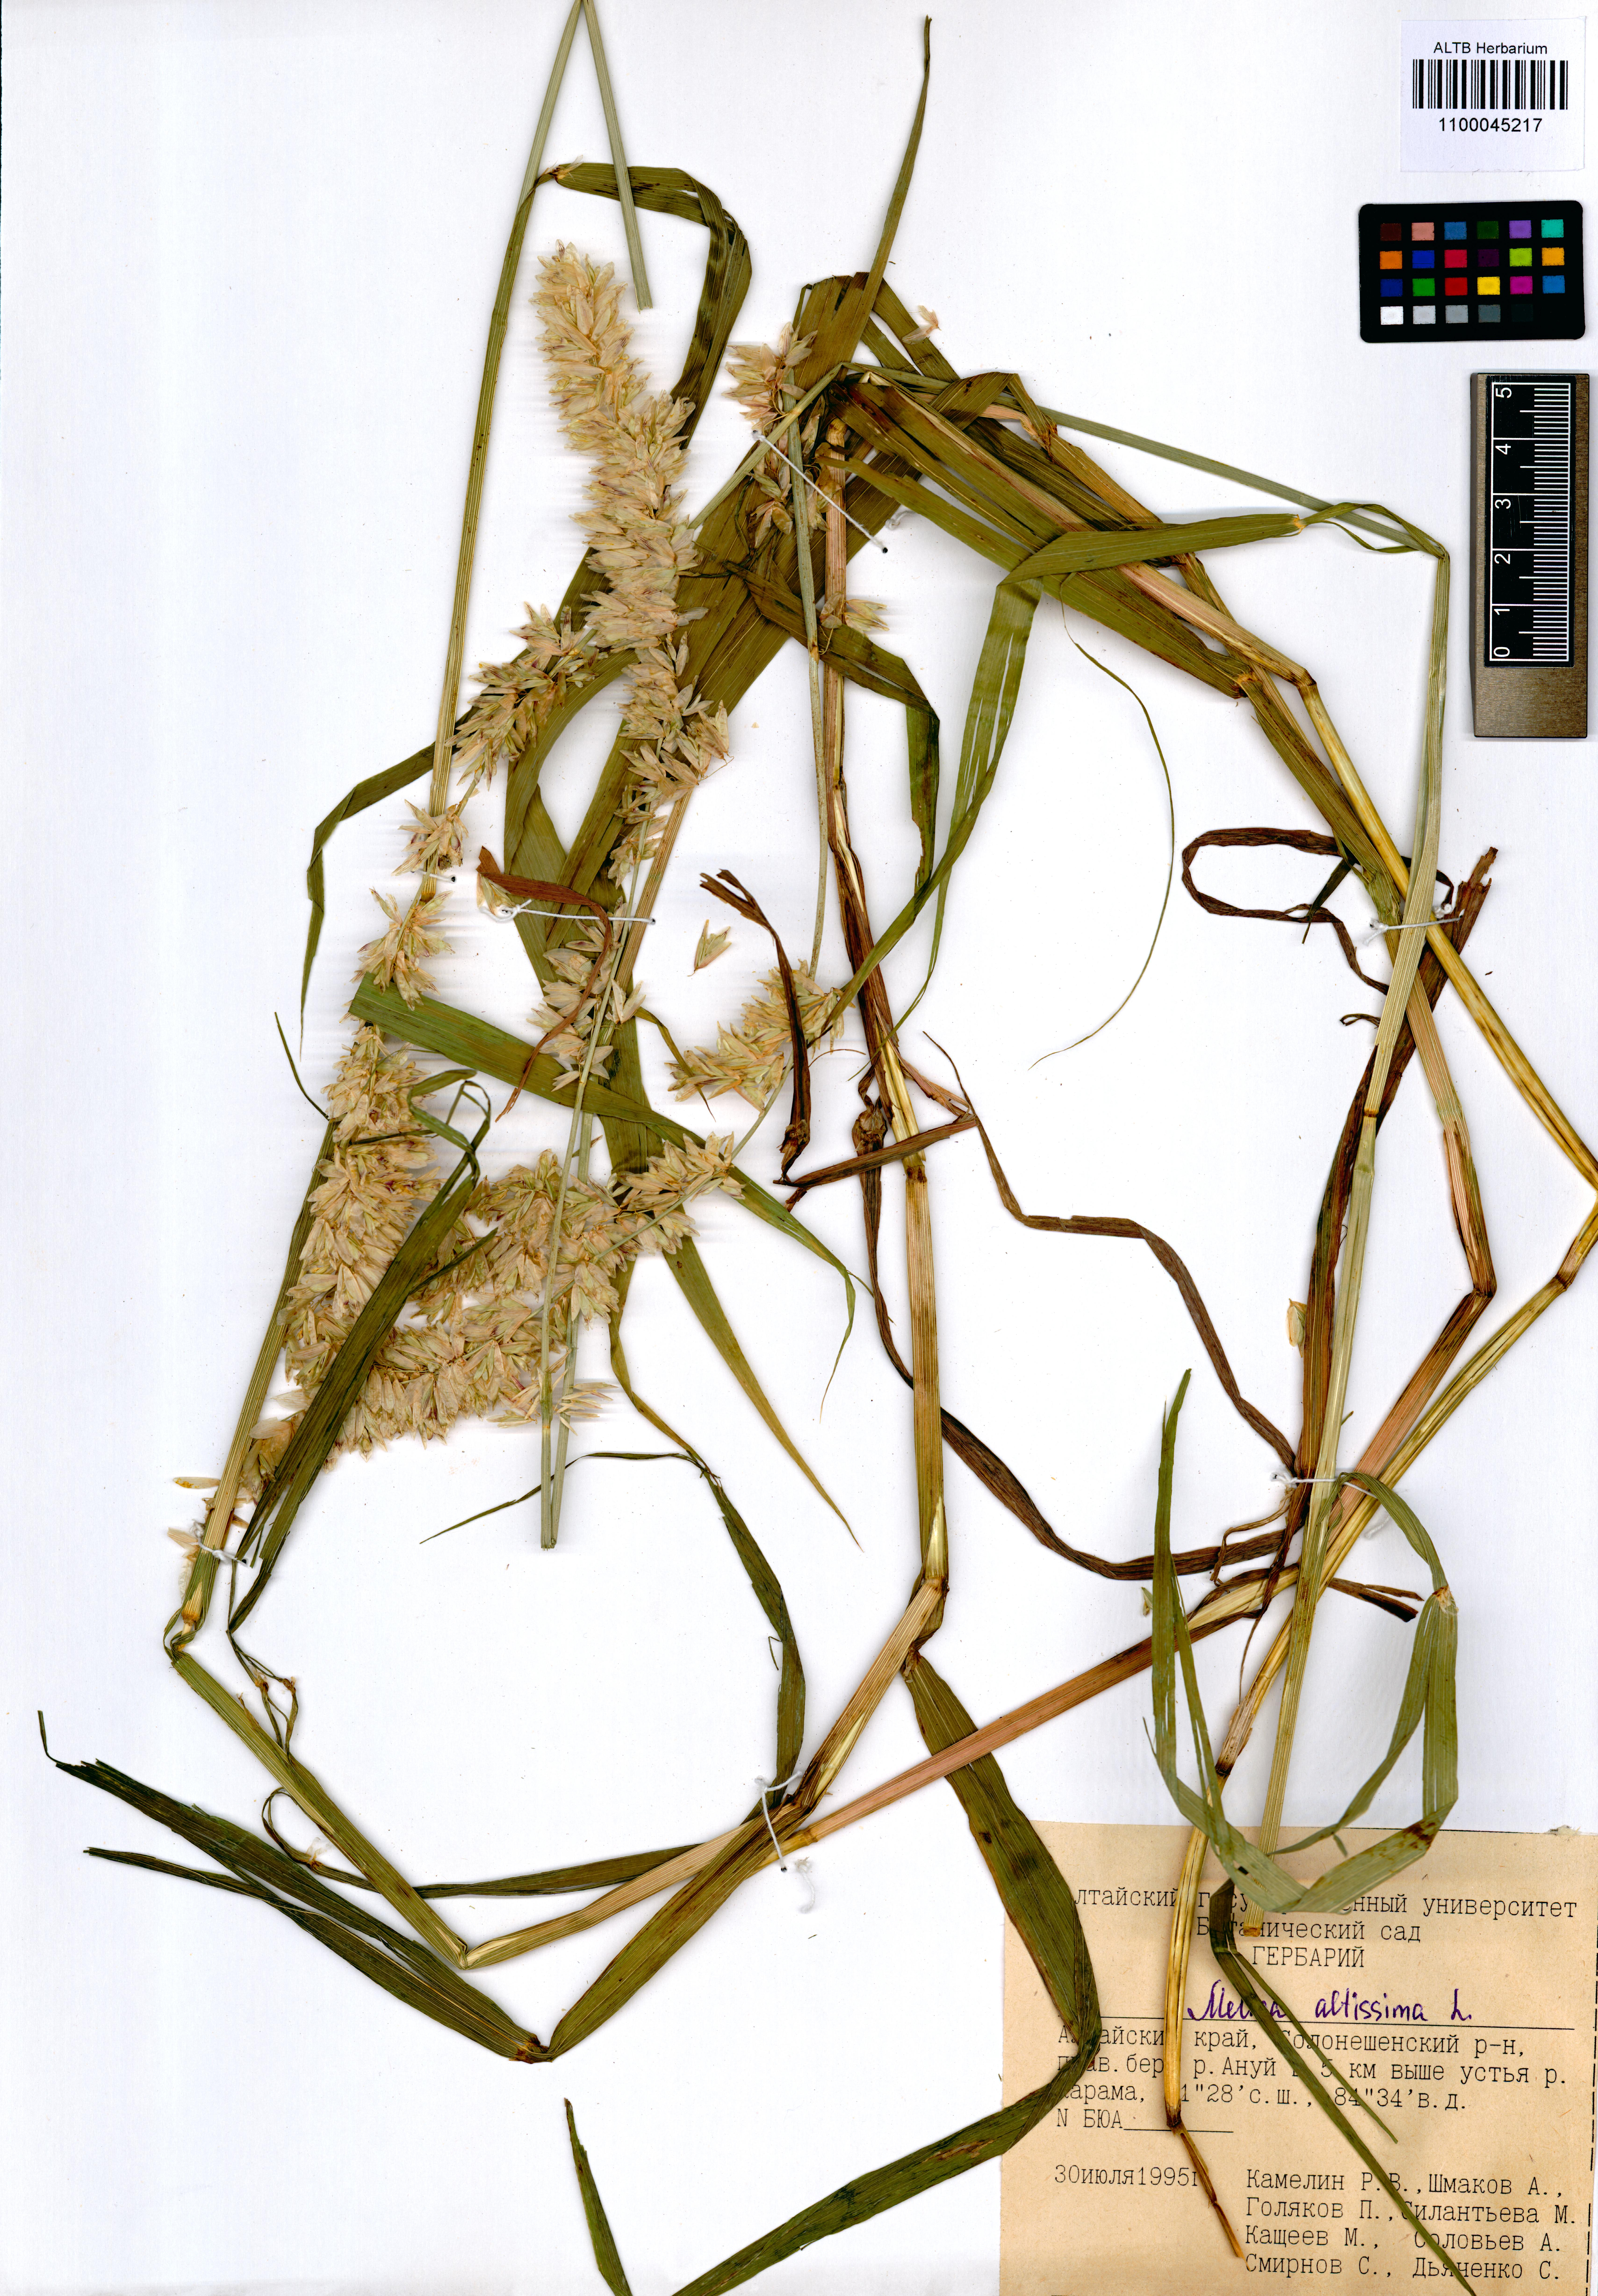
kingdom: Plantae
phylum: Tracheophyta
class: Liliopsida
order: Poales
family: Poaceae
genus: Melica
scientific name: Melica altissima
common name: Siberian melicgrass
